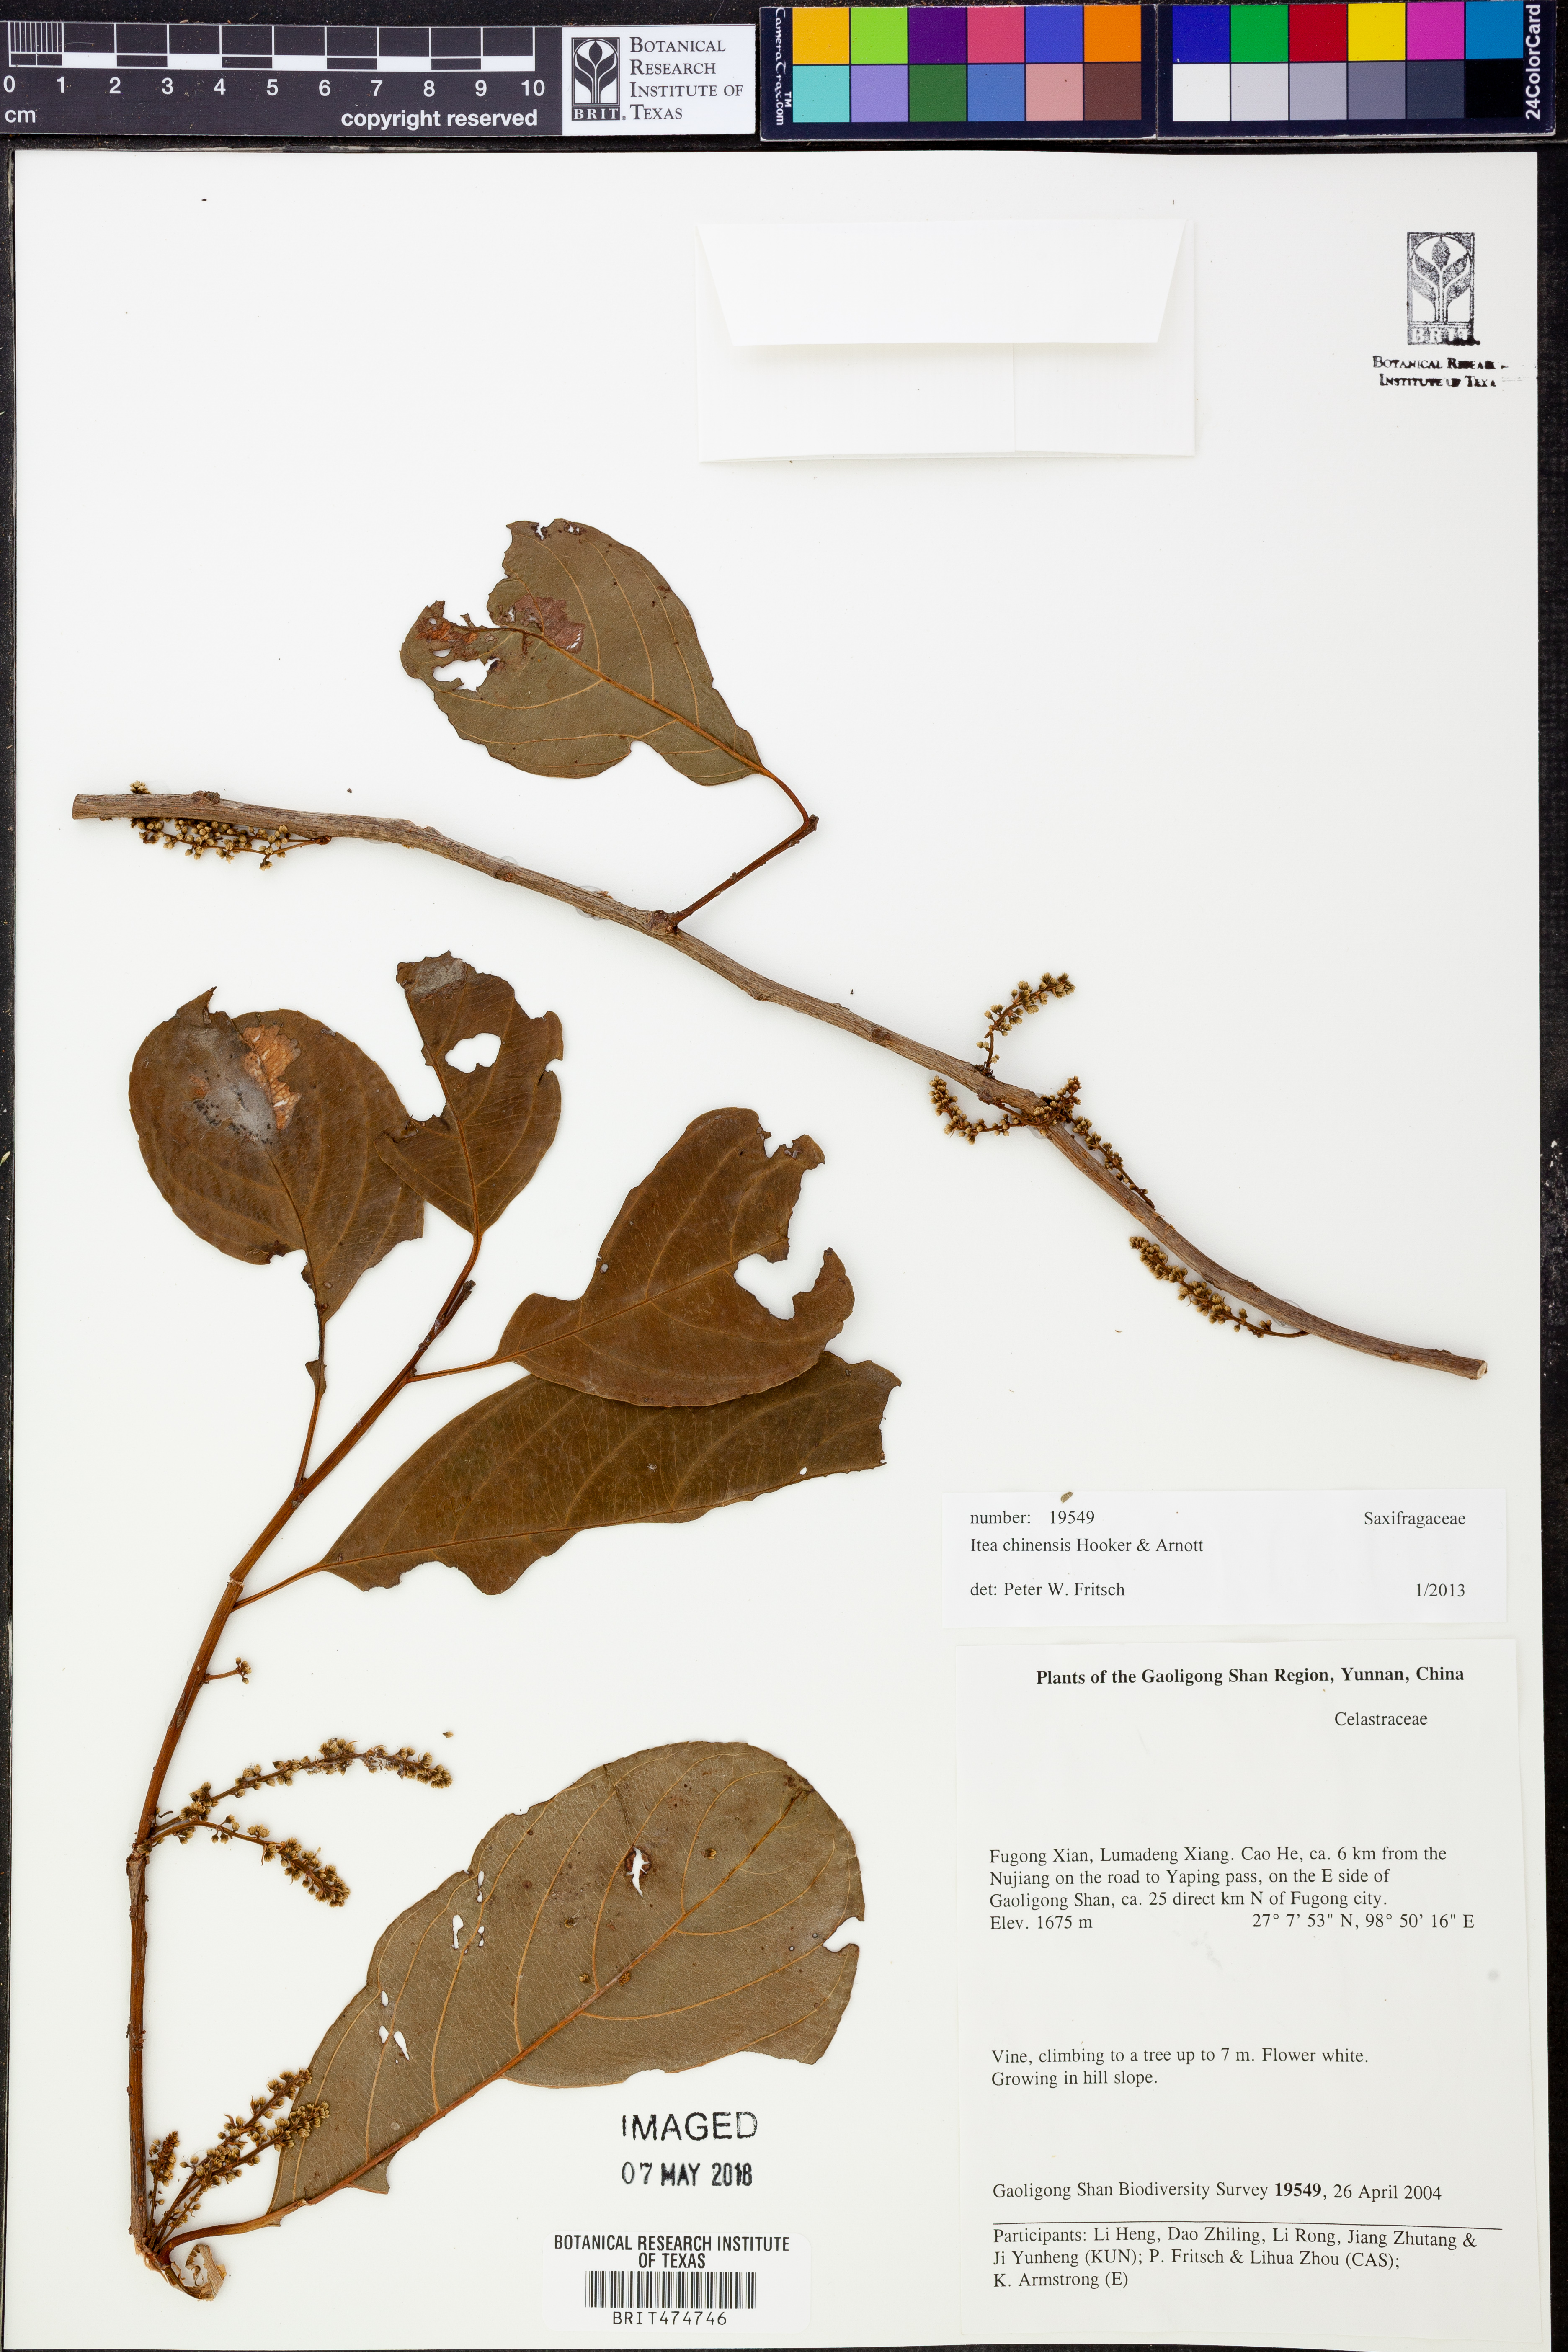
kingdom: Plantae
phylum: Tracheophyta
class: Magnoliopsida
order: Saxifragales
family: Iteaceae
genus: Itea
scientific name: Itea chinensis
